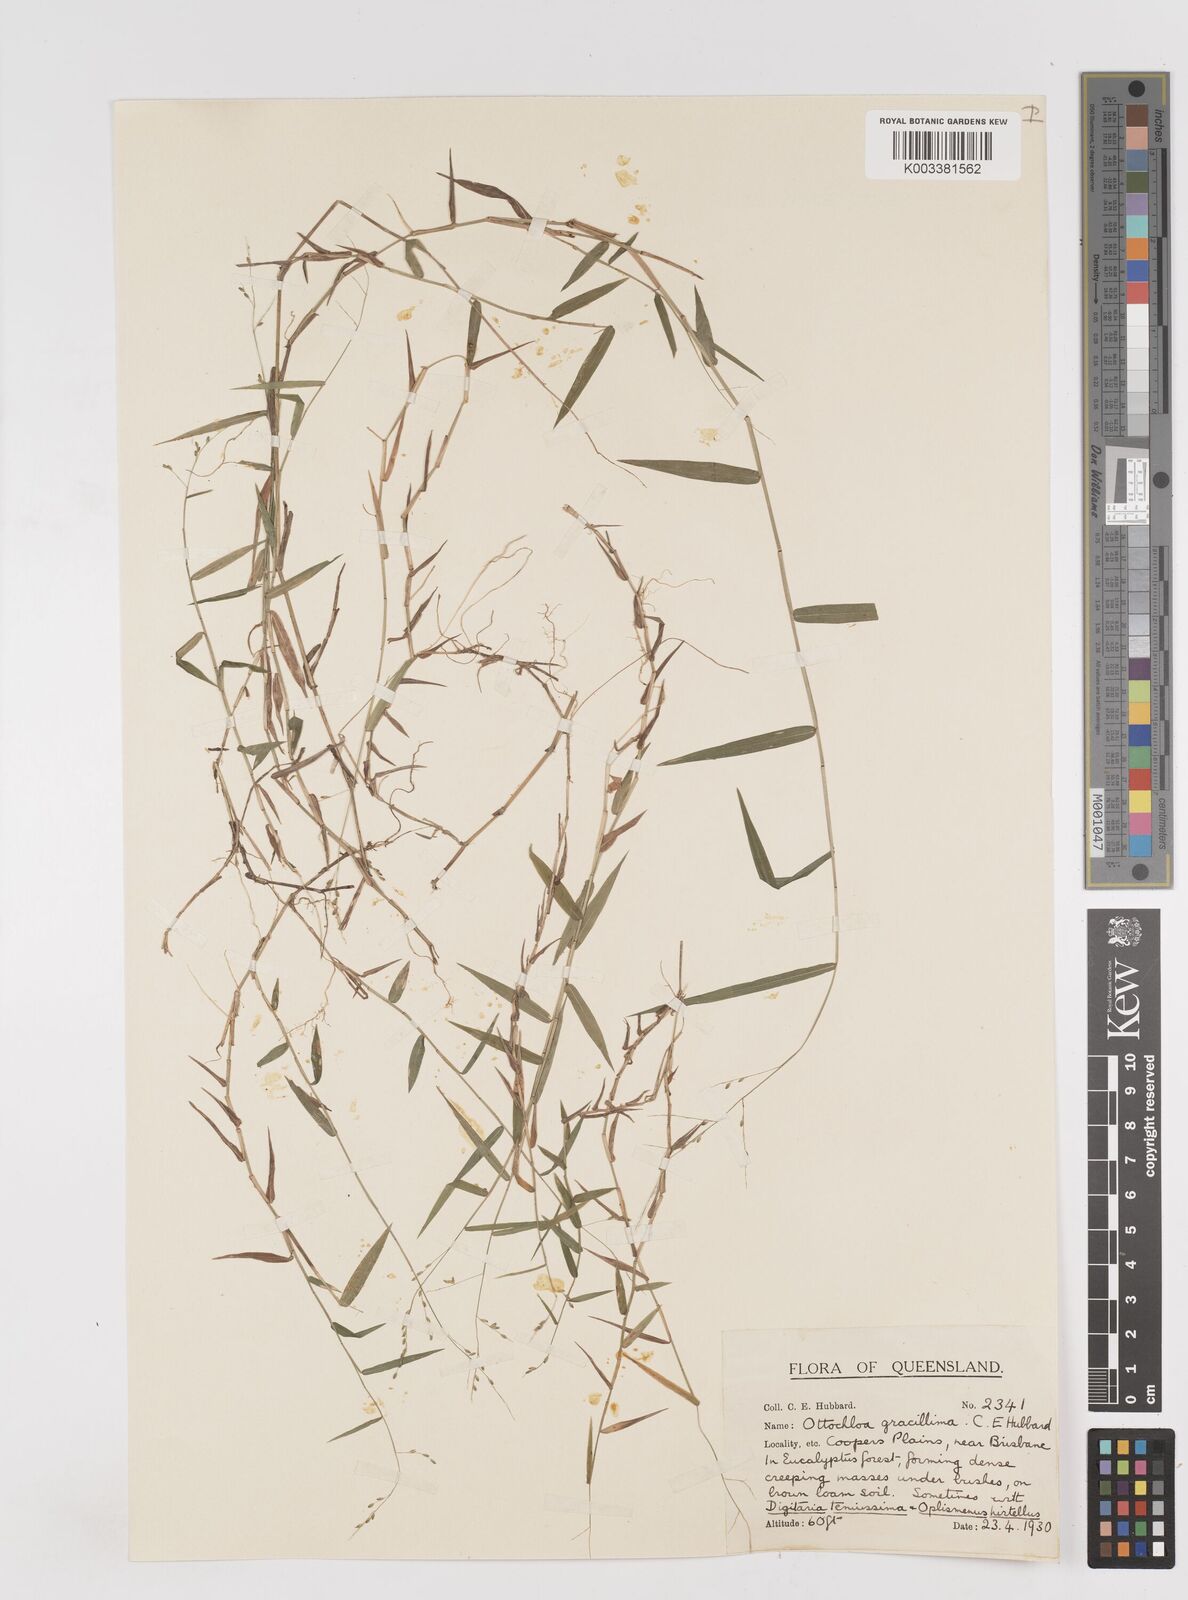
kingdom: Plantae
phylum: Tracheophyta
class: Liliopsida
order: Poales
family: Poaceae
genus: Ottochloa
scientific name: Ottochloa gracillima
